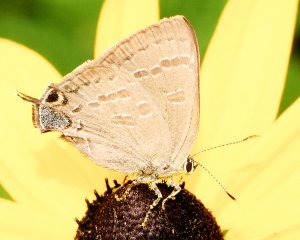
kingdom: Animalia
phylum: Arthropoda
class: Insecta
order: Lepidoptera
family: Lycaenidae
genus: Strymon
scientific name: Strymon caryaevorus
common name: Hickory Hairstreak
